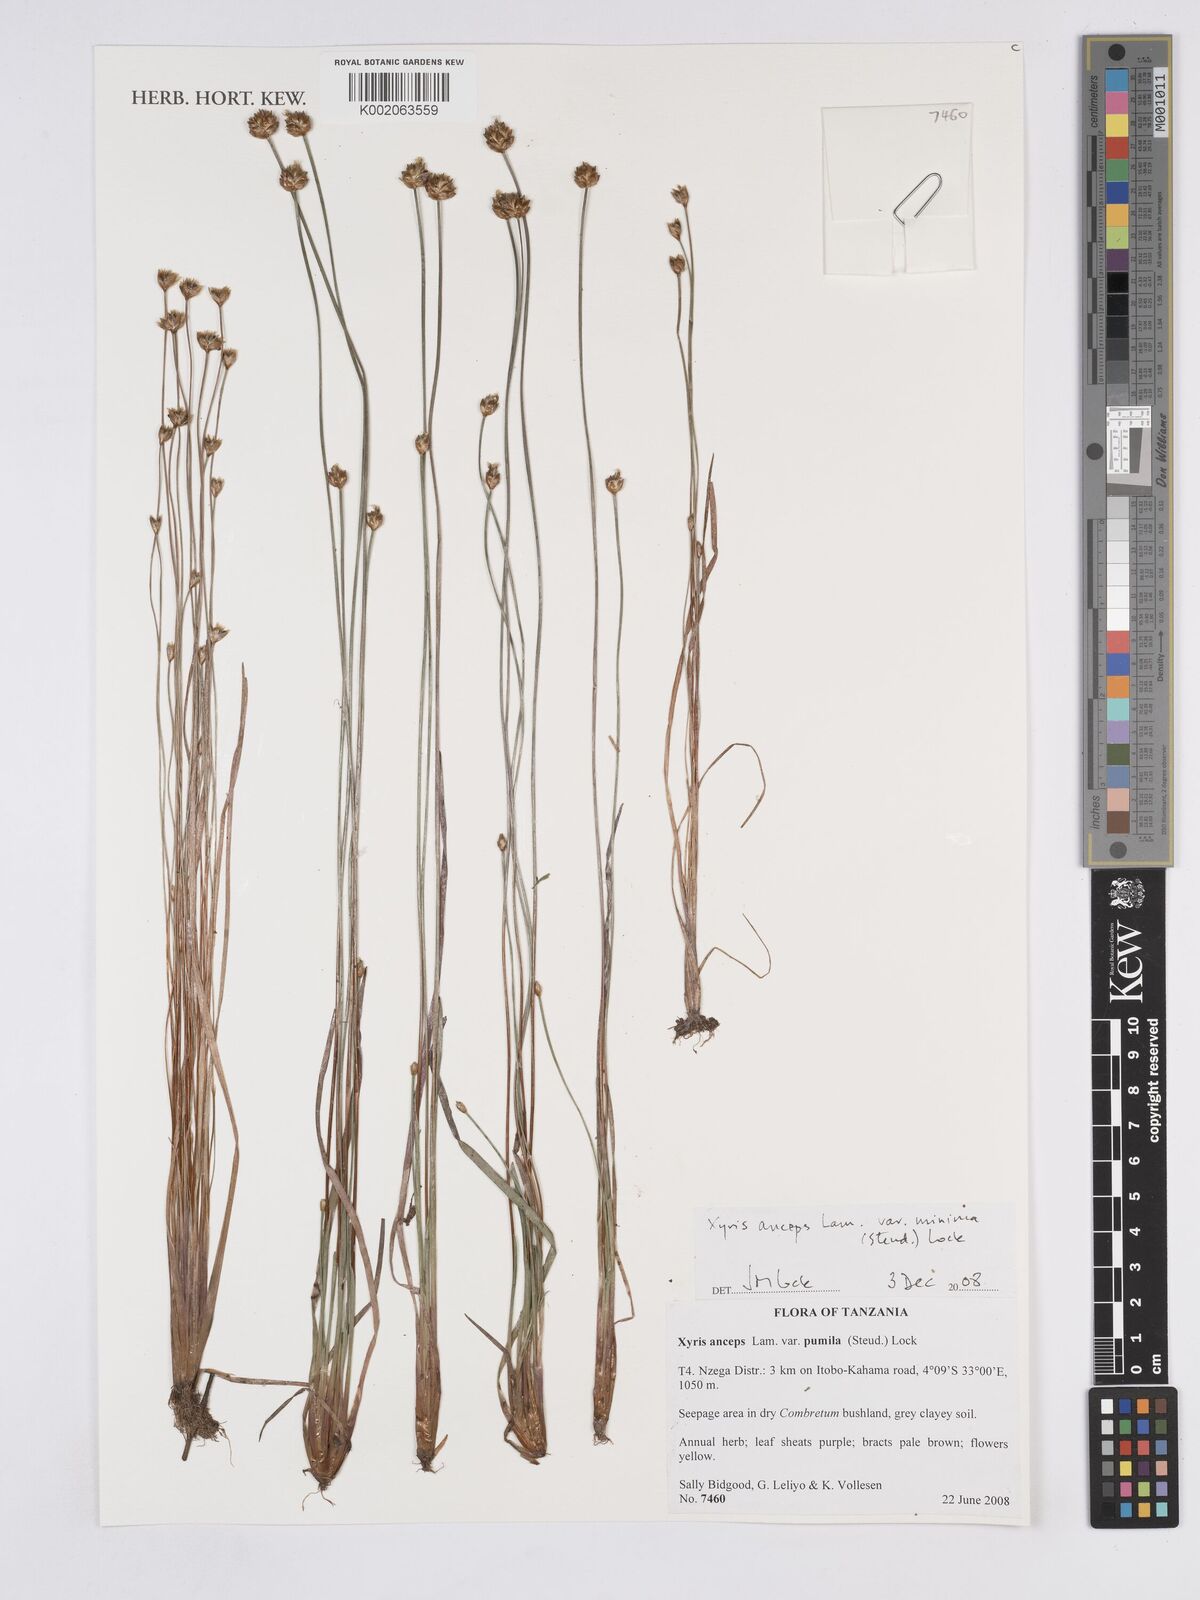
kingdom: Plantae
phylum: Tracheophyta
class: Liliopsida
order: Poales
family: Xyridaceae
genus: Xyris
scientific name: Xyris anceps
